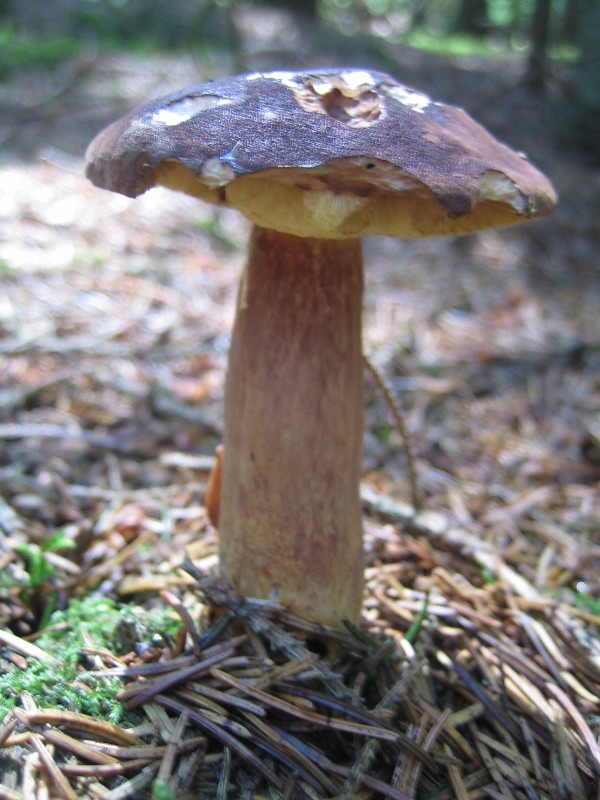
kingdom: Fungi
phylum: Basidiomycota
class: Agaricomycetes
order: Boletales
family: Boletaceae
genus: Imleria
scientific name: Imleria badia
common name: brunstokket rørhat
